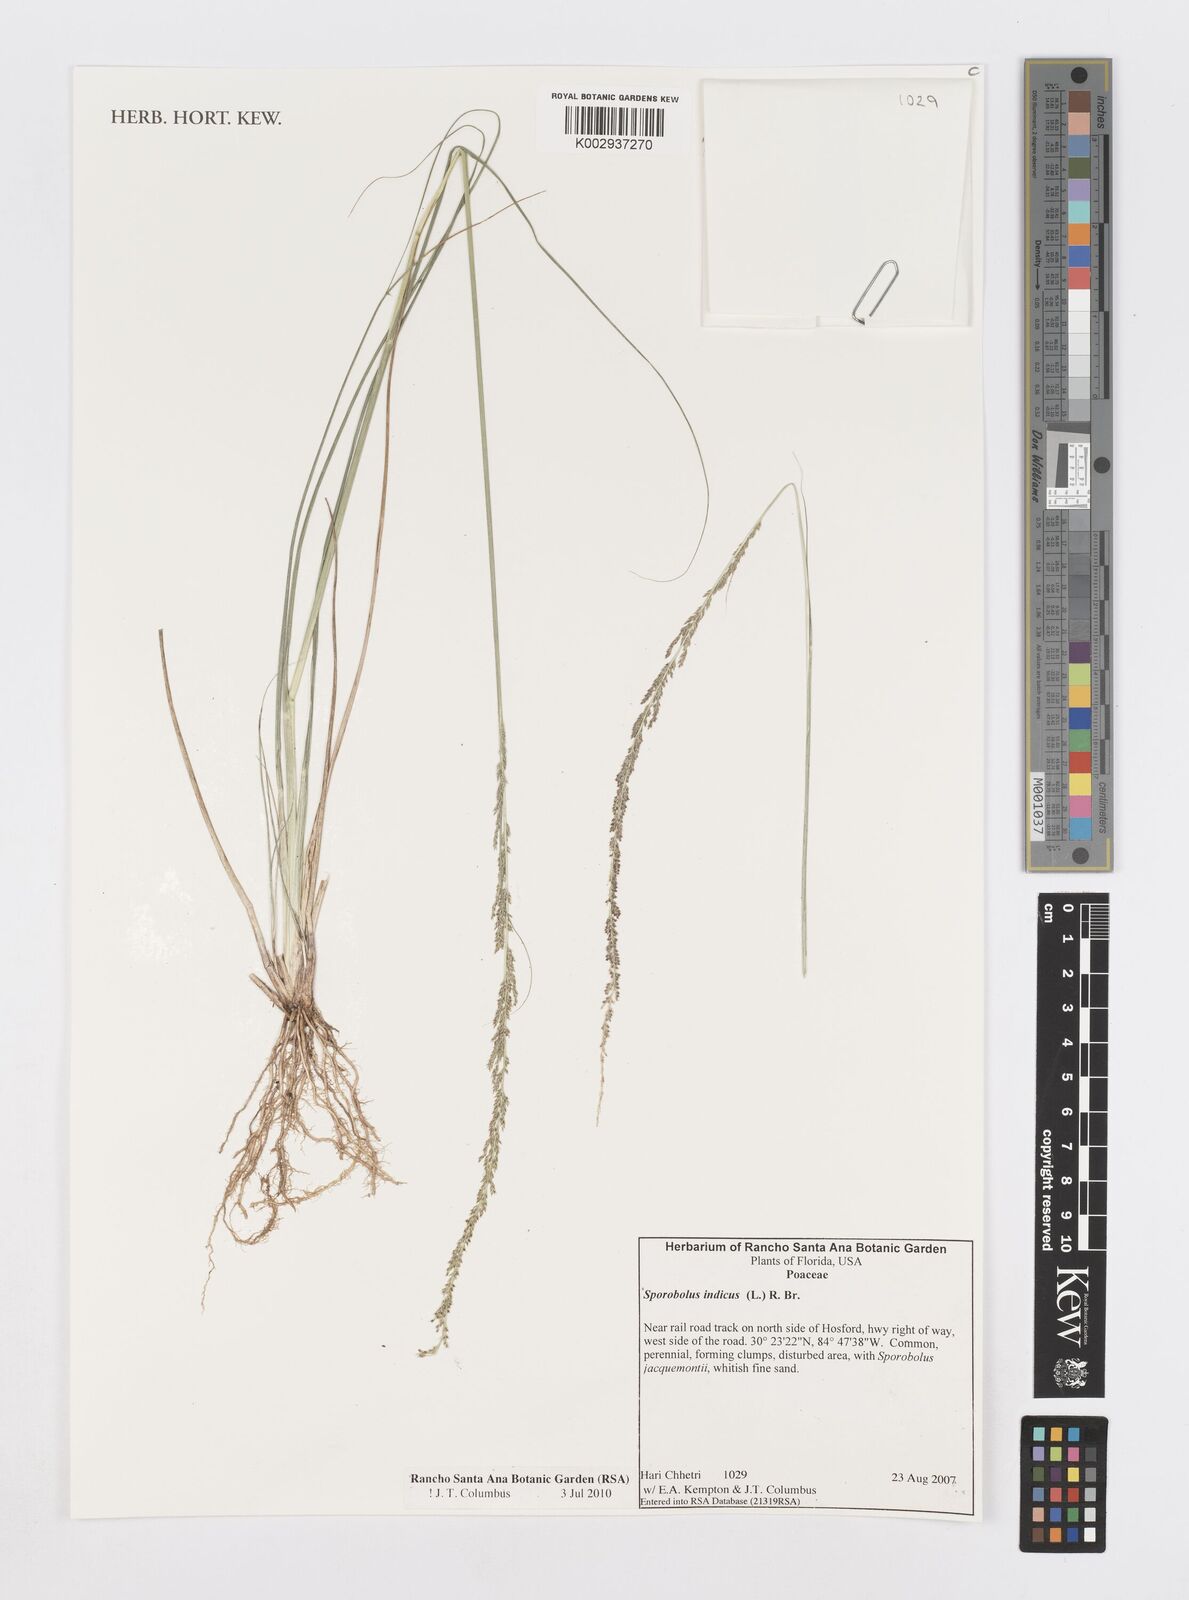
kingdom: Plantae
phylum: Tracheophyta
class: Liliopsida
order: Poales
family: Poaceae
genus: Sporobolus
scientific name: Sporobolus indicus
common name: Smut grass
